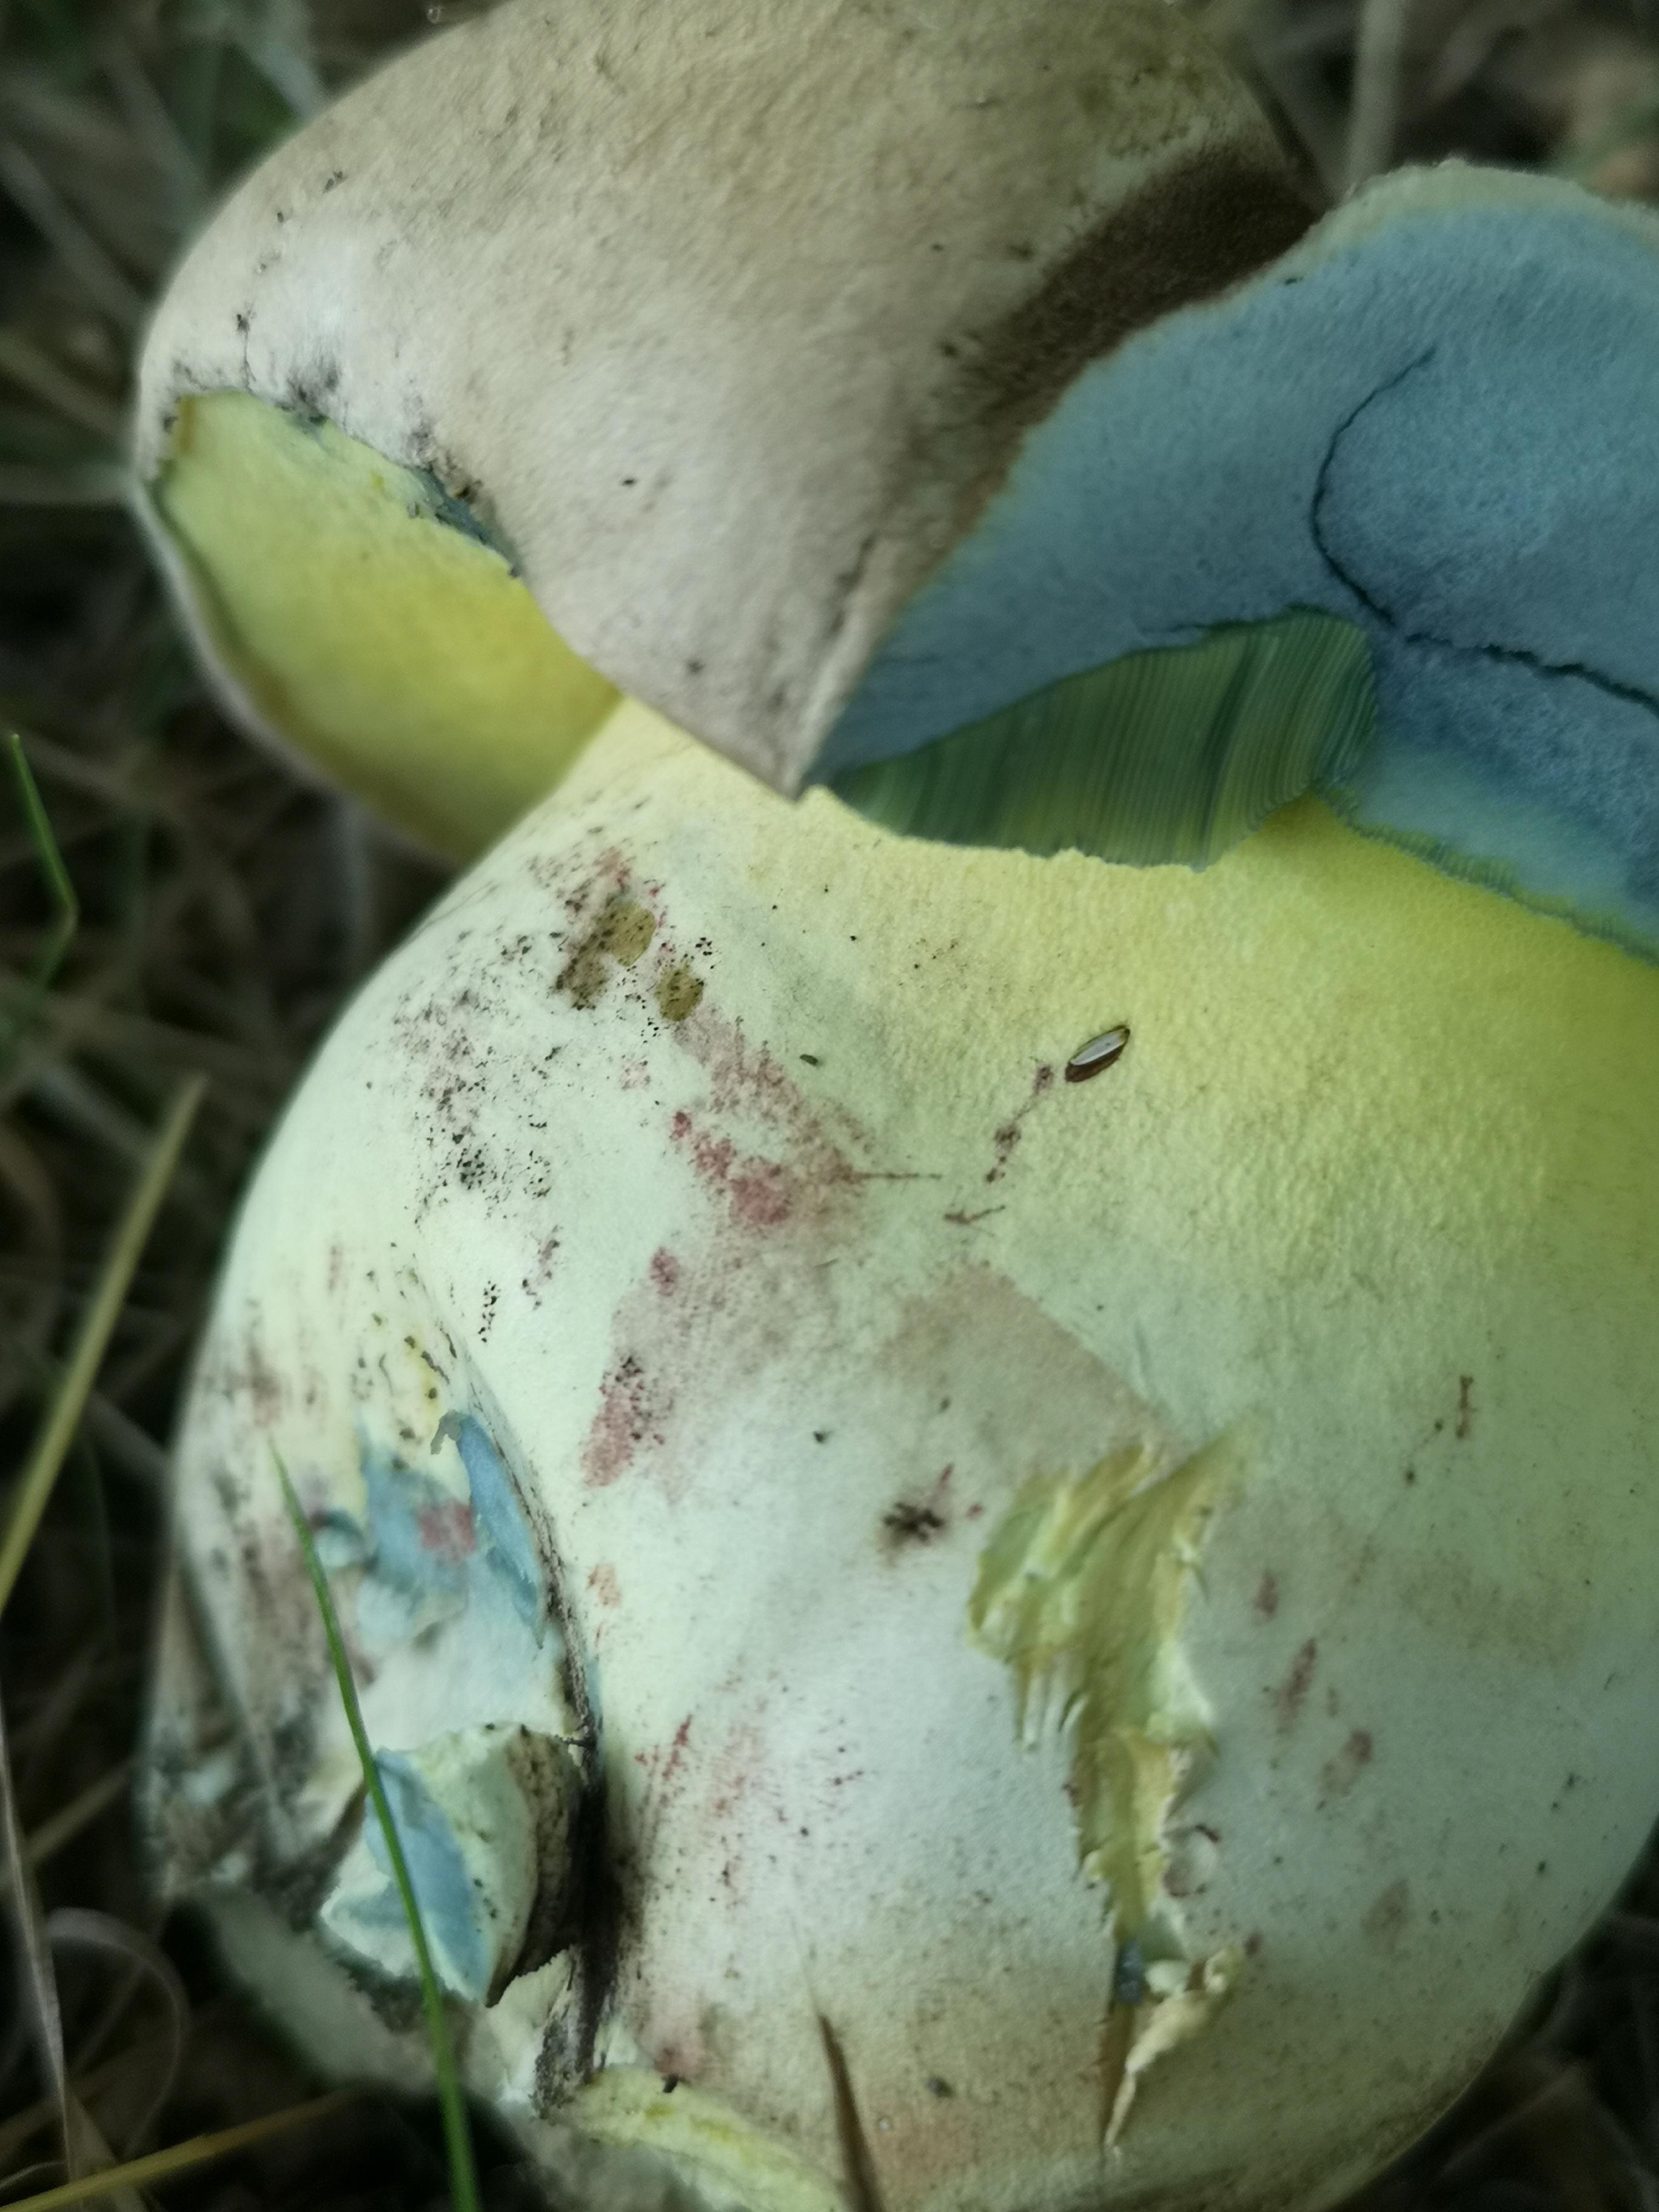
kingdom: Fungi
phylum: Basidiomycota
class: Agaricomycetes
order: Boletales
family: Boletaceae
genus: Caloboletus
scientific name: Caloboletus radicans
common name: rod-rørhat
